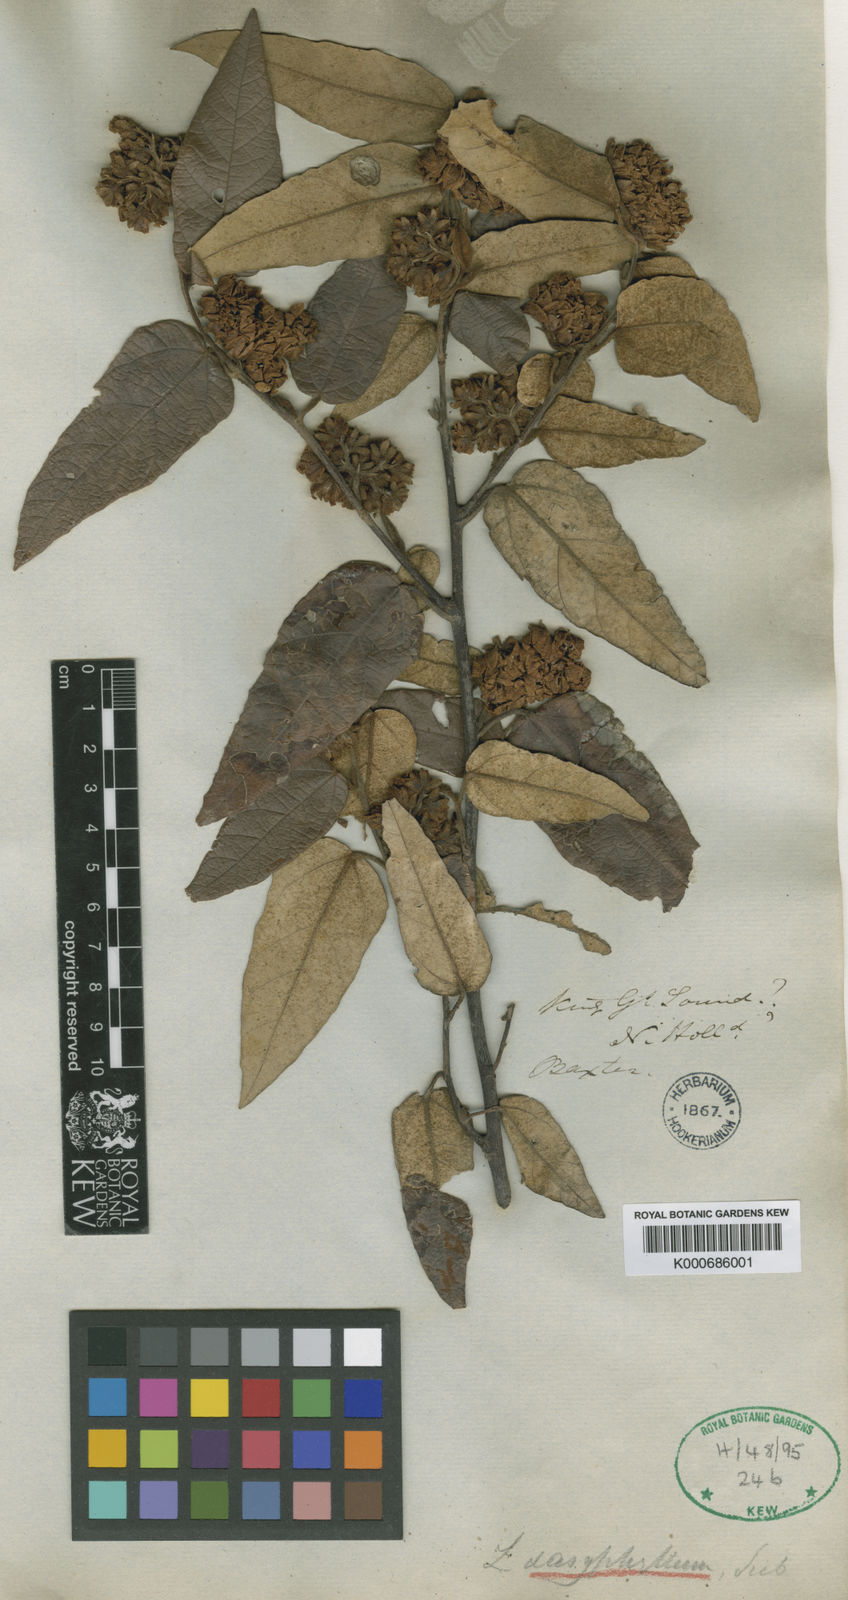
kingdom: Plantae
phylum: Tracheophyta
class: Magnoliopsida
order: Malvales
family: Malvaceae
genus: Lasiopetalum
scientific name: Lasiopetalum macrophyllum
